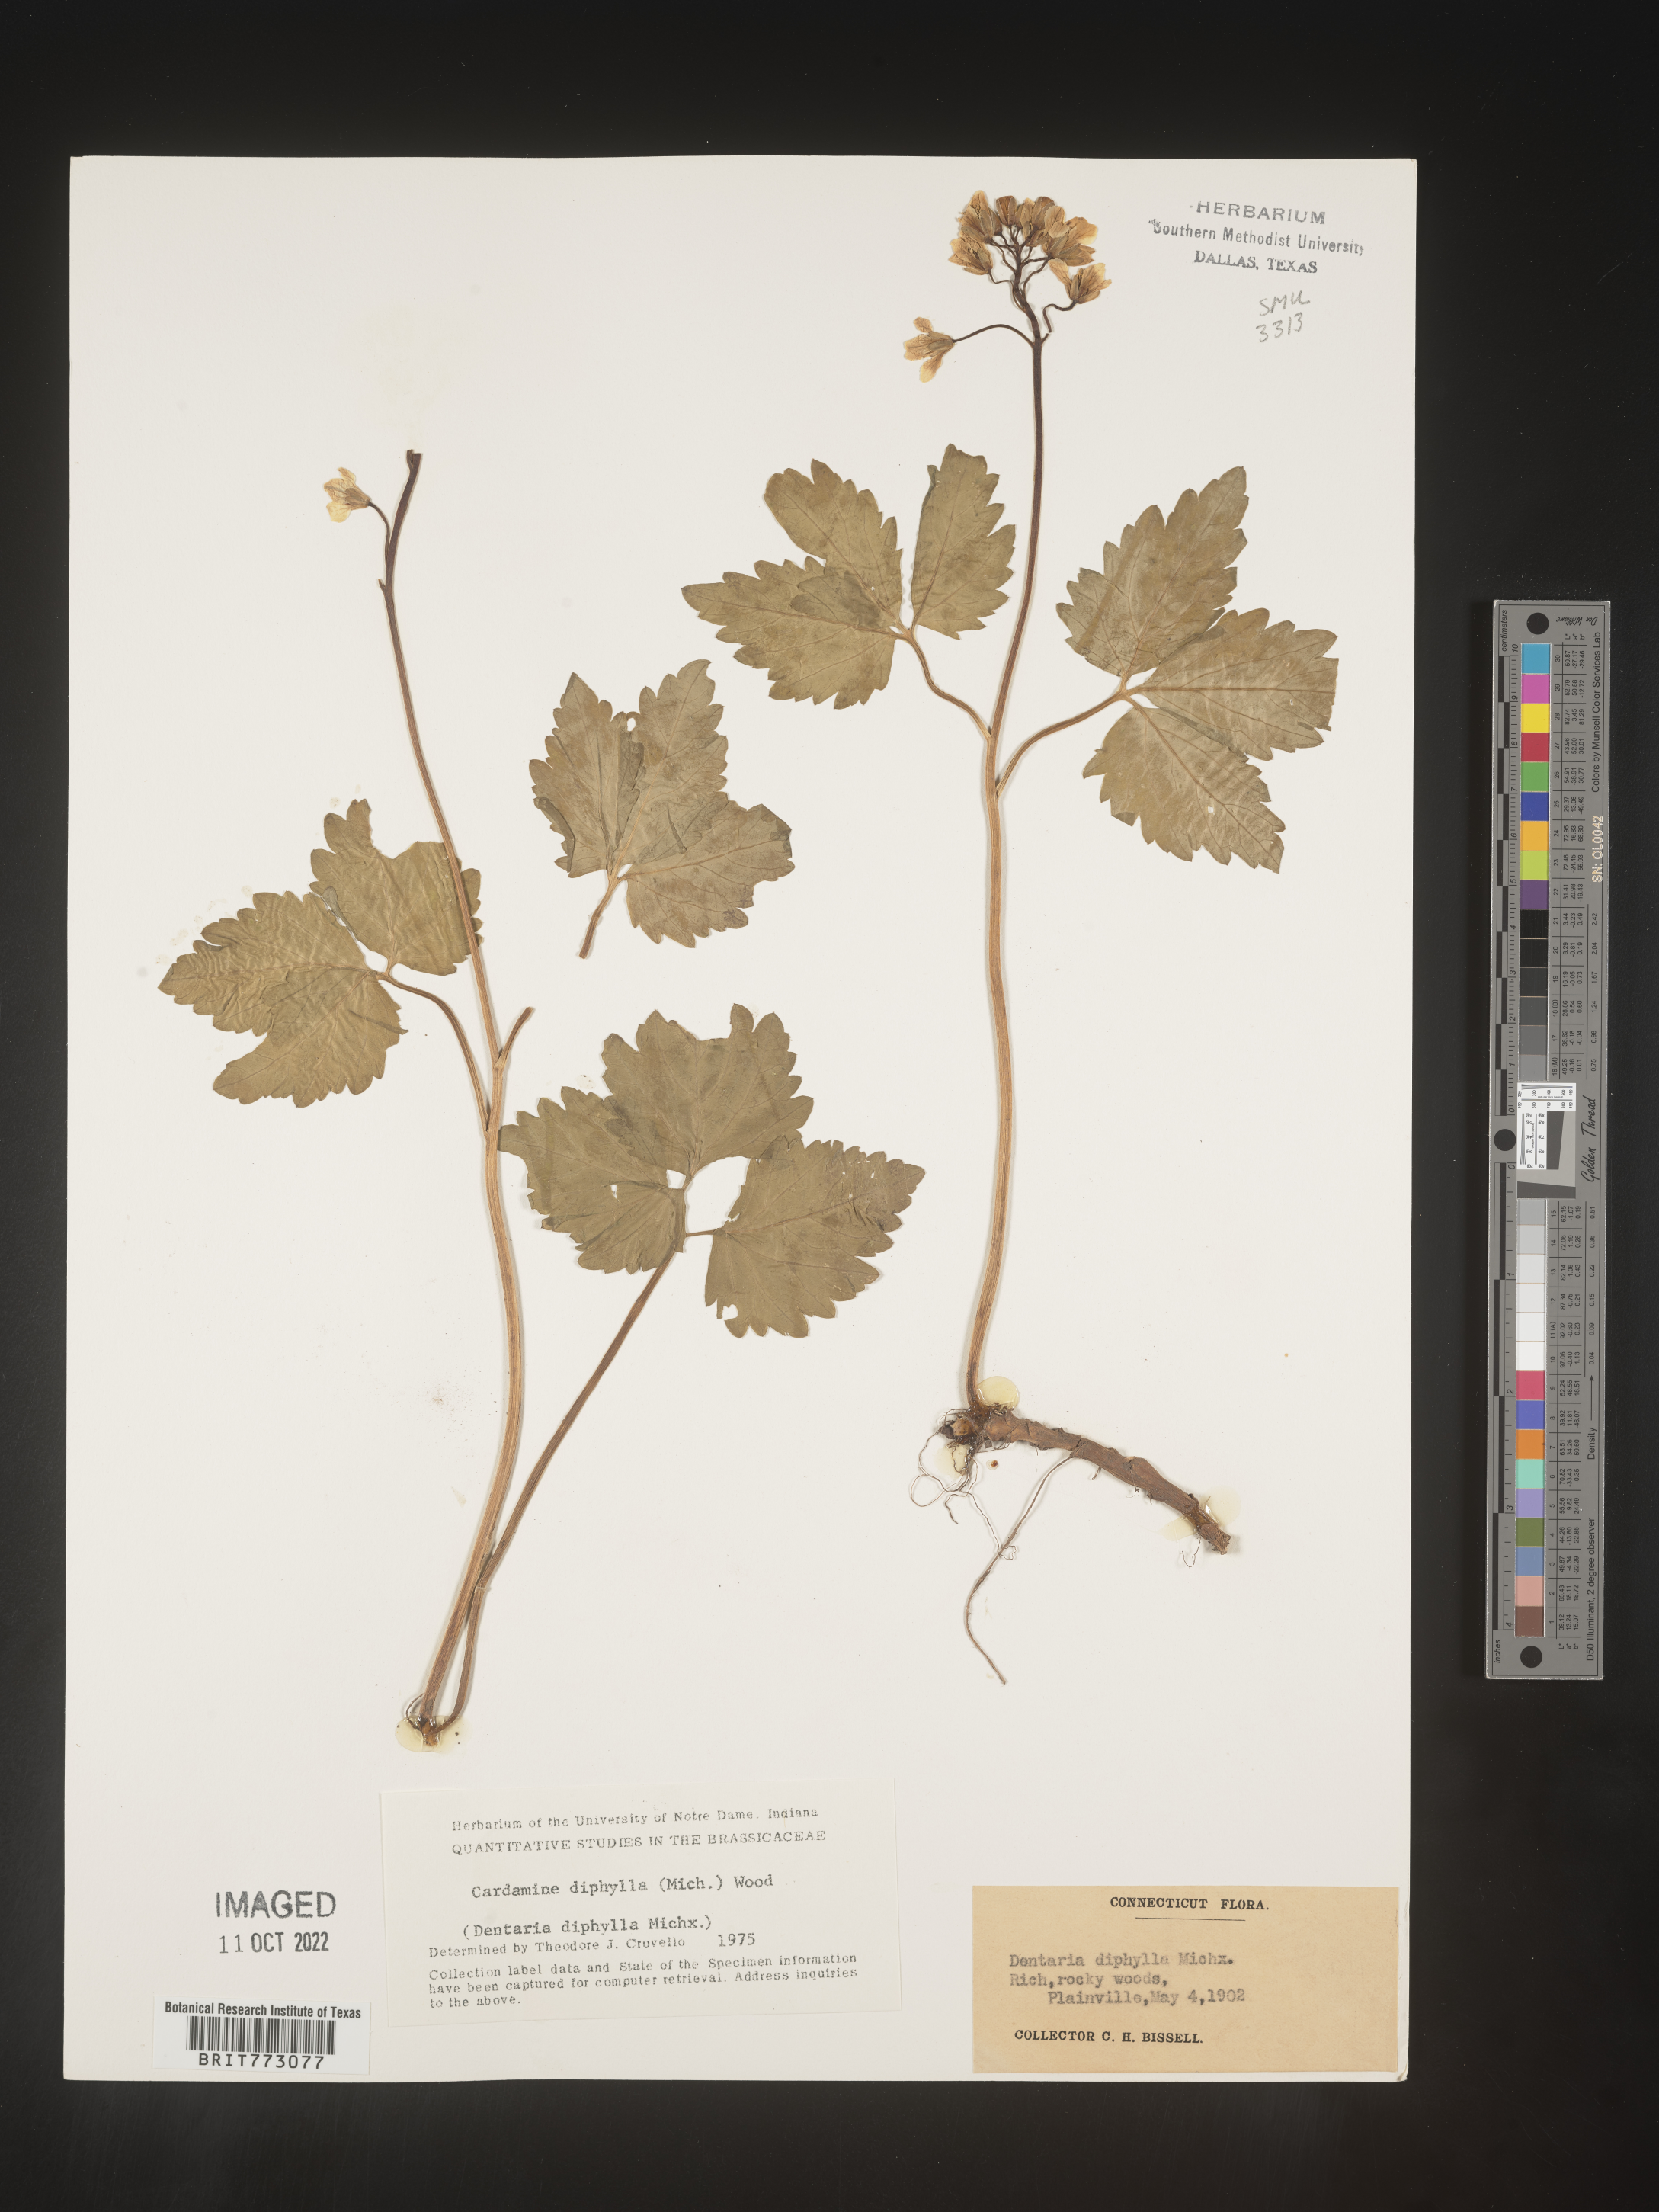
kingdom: Plantae
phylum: Tracheophyta
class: Magnoliopsida
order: Brassicales
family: Brassicaceae
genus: Cardamine
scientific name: Cardamine diphylla
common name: Broad-leaved toothwort
